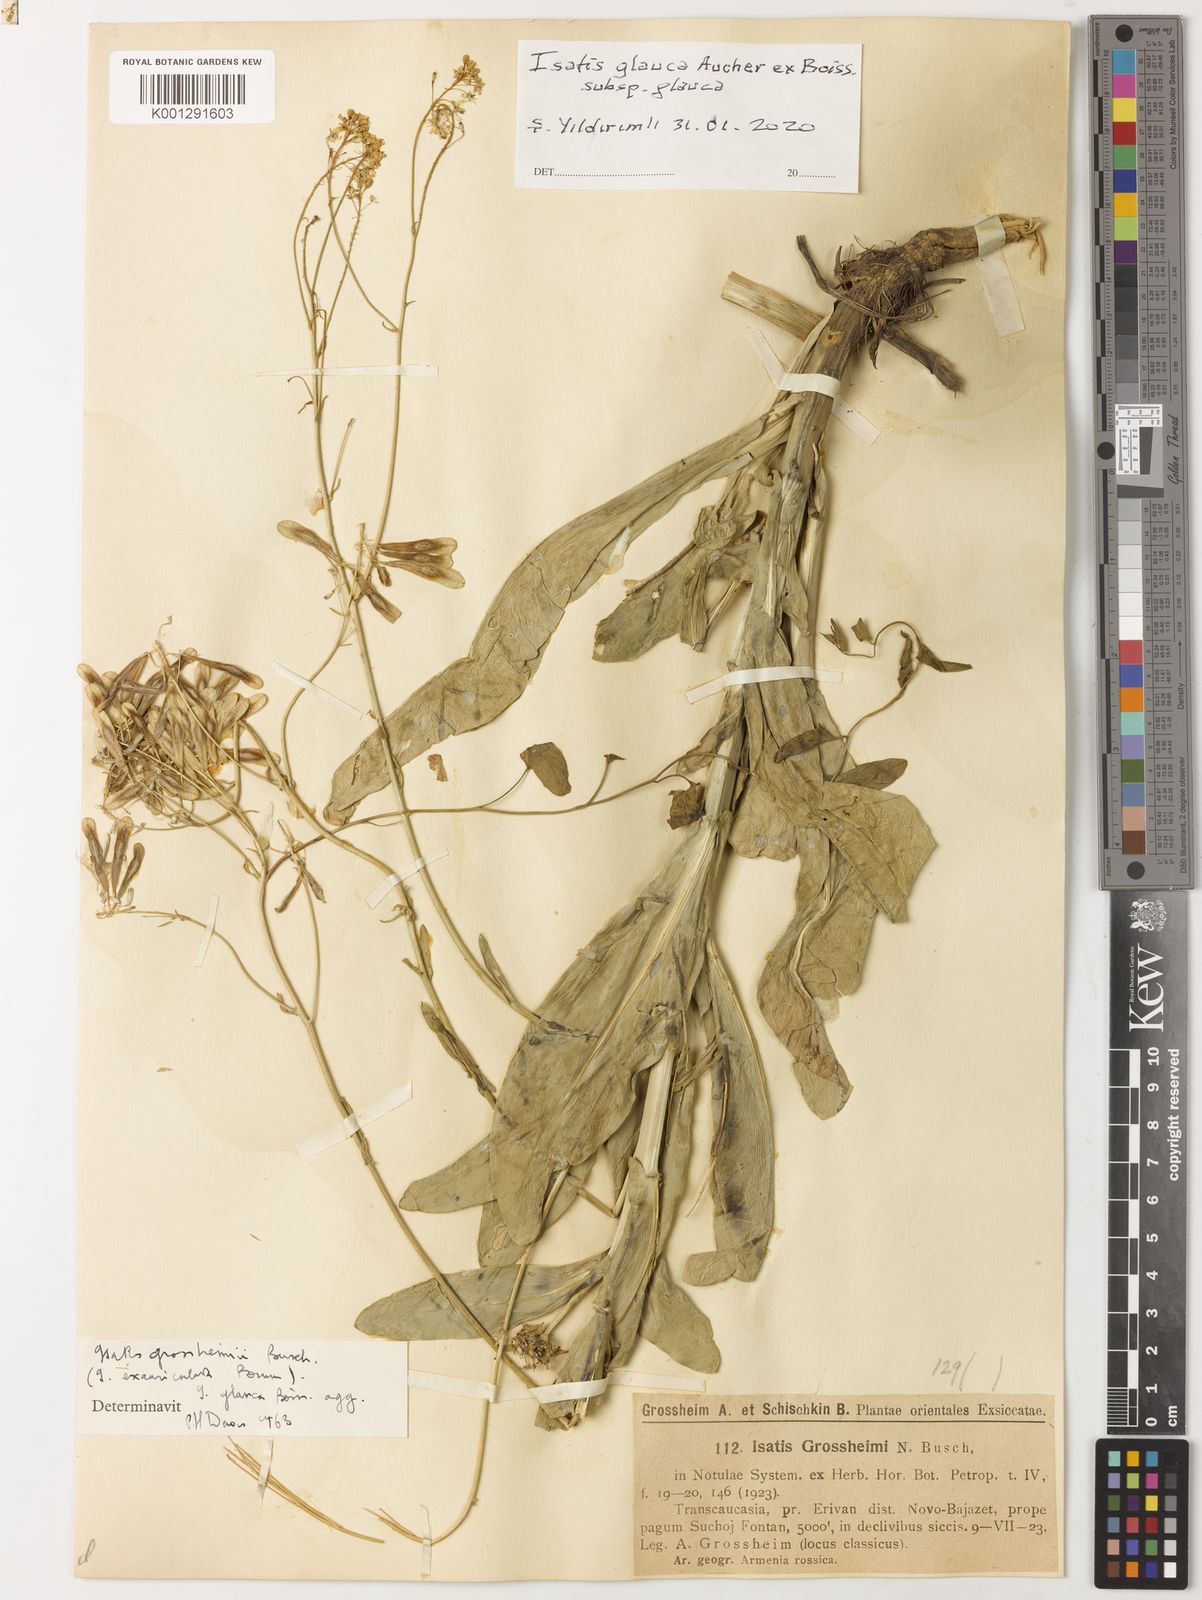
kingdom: Plantae
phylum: Tracheophyta
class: Magnoliopsida
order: Brassicales
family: Brassicaceae
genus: Isatis
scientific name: Isatis glauca
